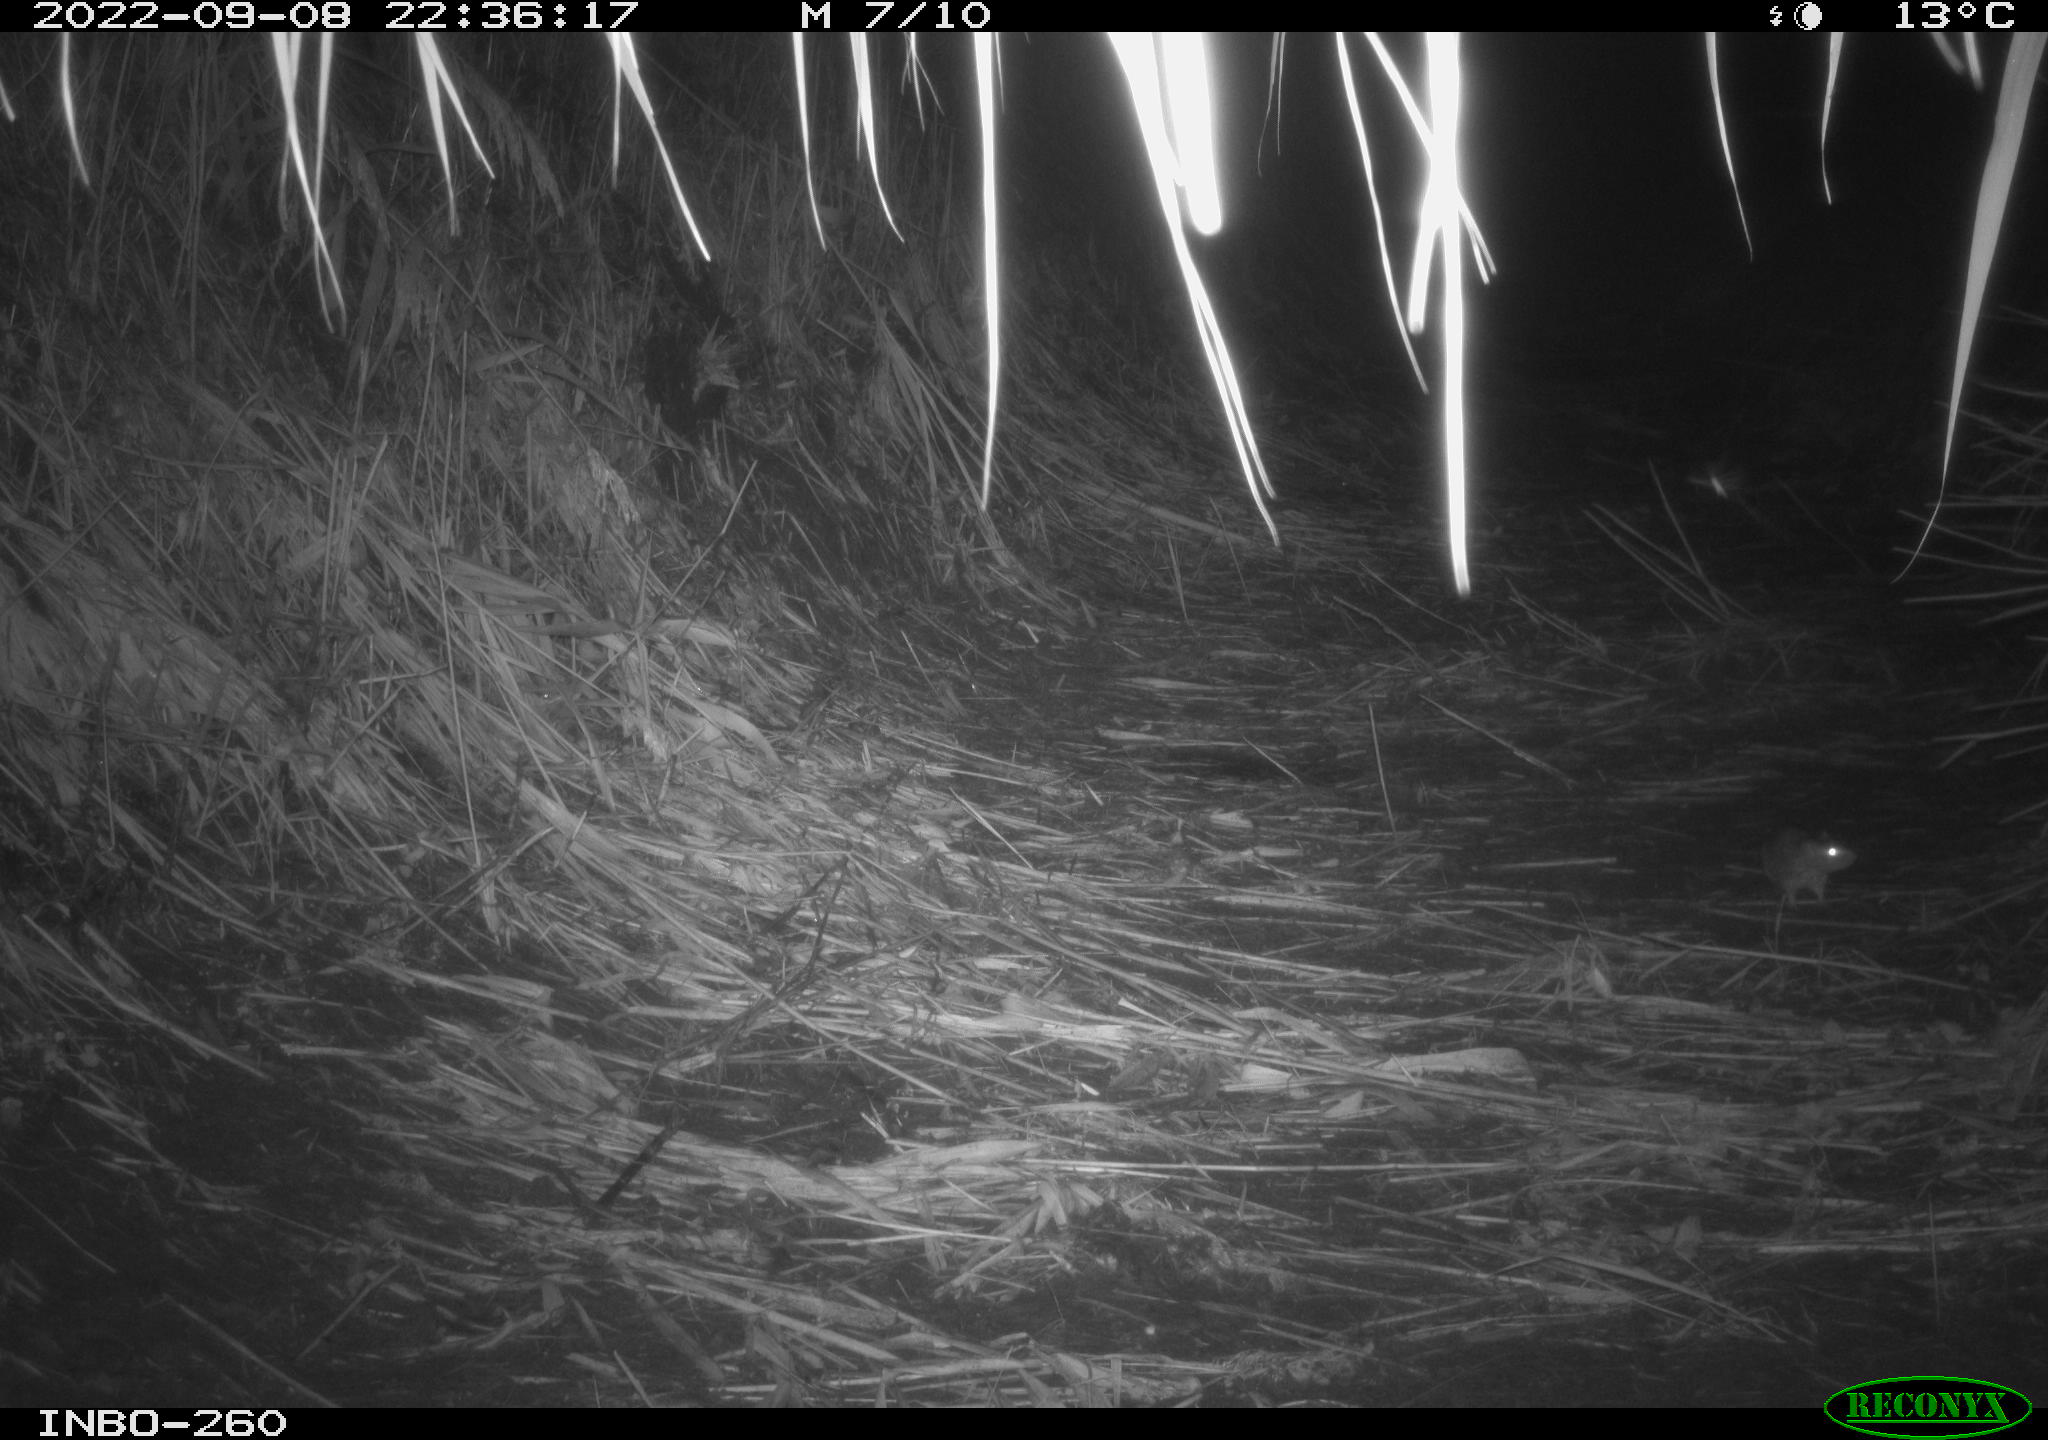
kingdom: Animalia
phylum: Chordata
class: Mammalia
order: Rodentia
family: Muridae
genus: Rattus
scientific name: Rattus norvegicus
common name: Brown rat
